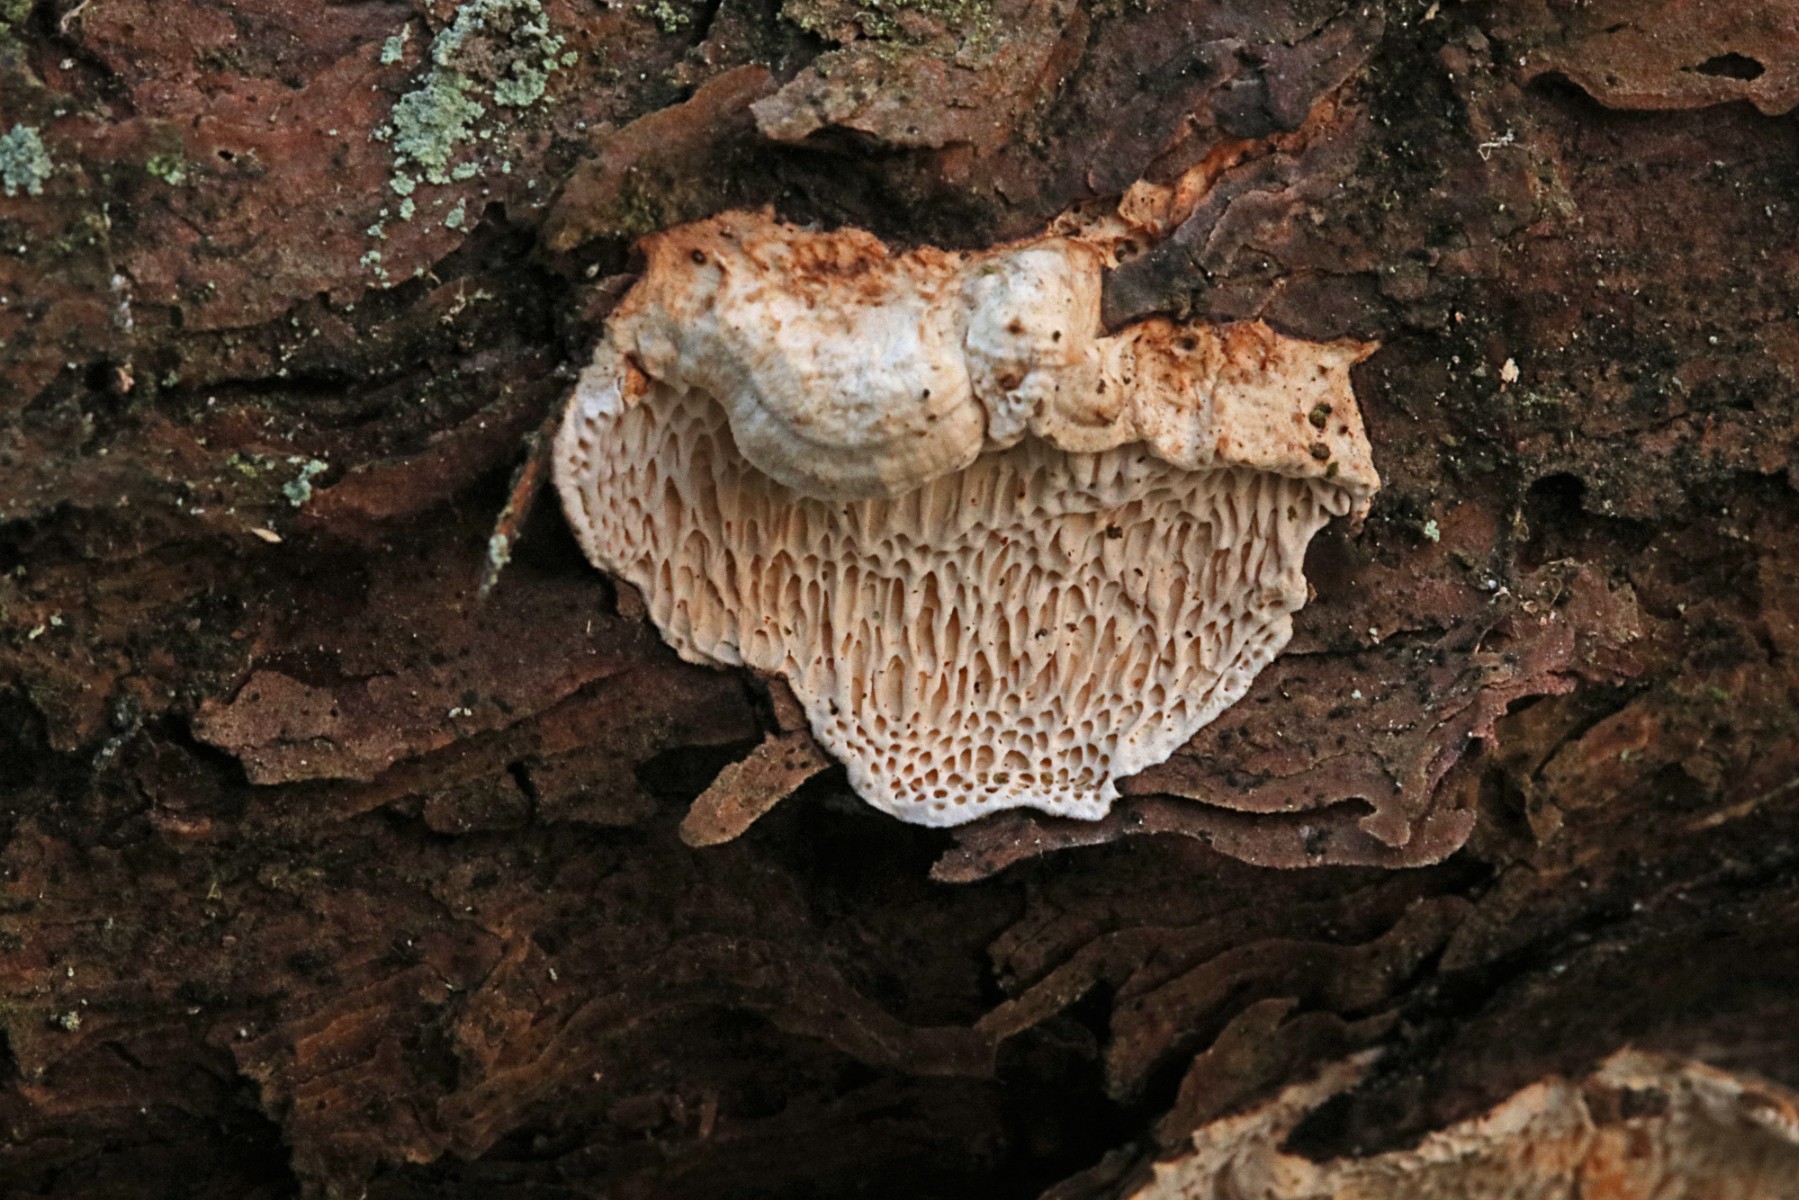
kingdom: Fungi
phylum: Basidiomycota
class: Agaricomycetes
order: Polyporales
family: Fomitopsidaceae
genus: Fomitopsis
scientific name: Fomitopsis
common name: fyrre-skiveporesvamp
